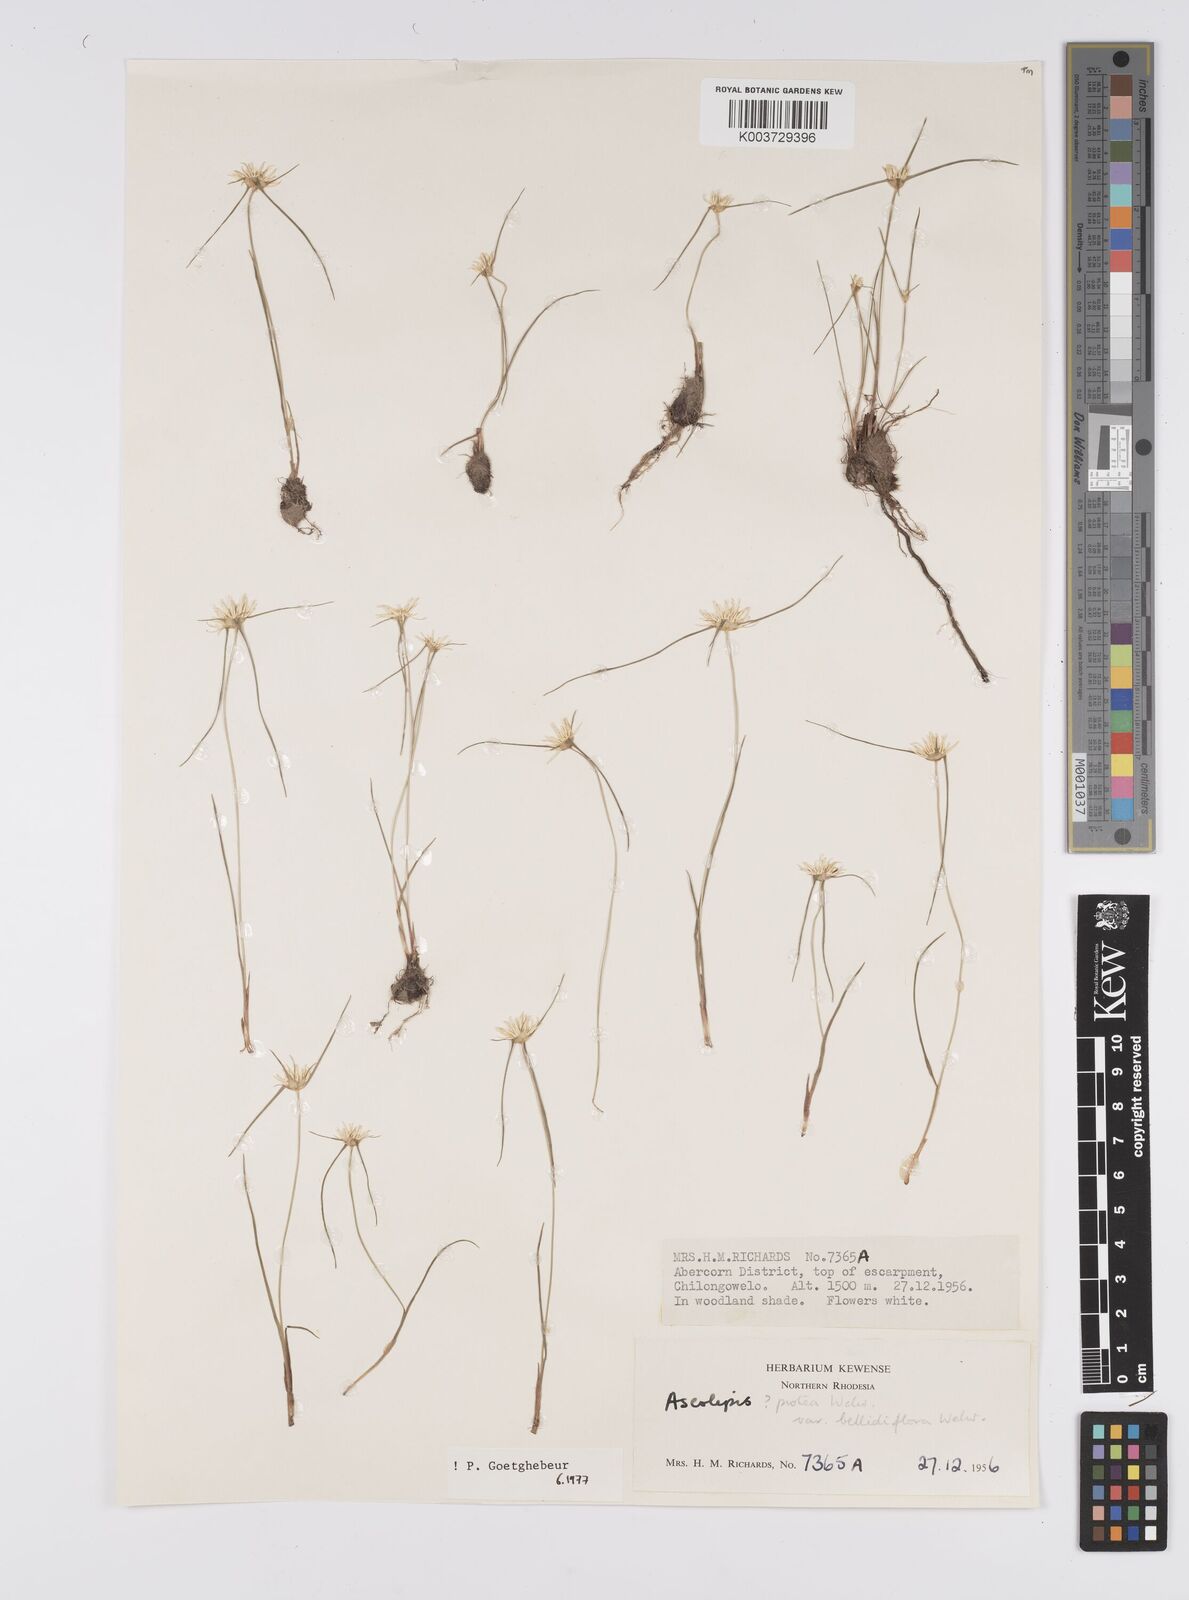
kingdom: Plantae
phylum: Tracheophyta
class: Liliopsida
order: Poales
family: Cyperaceae
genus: Cyperus
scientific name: Cyperus proteus
